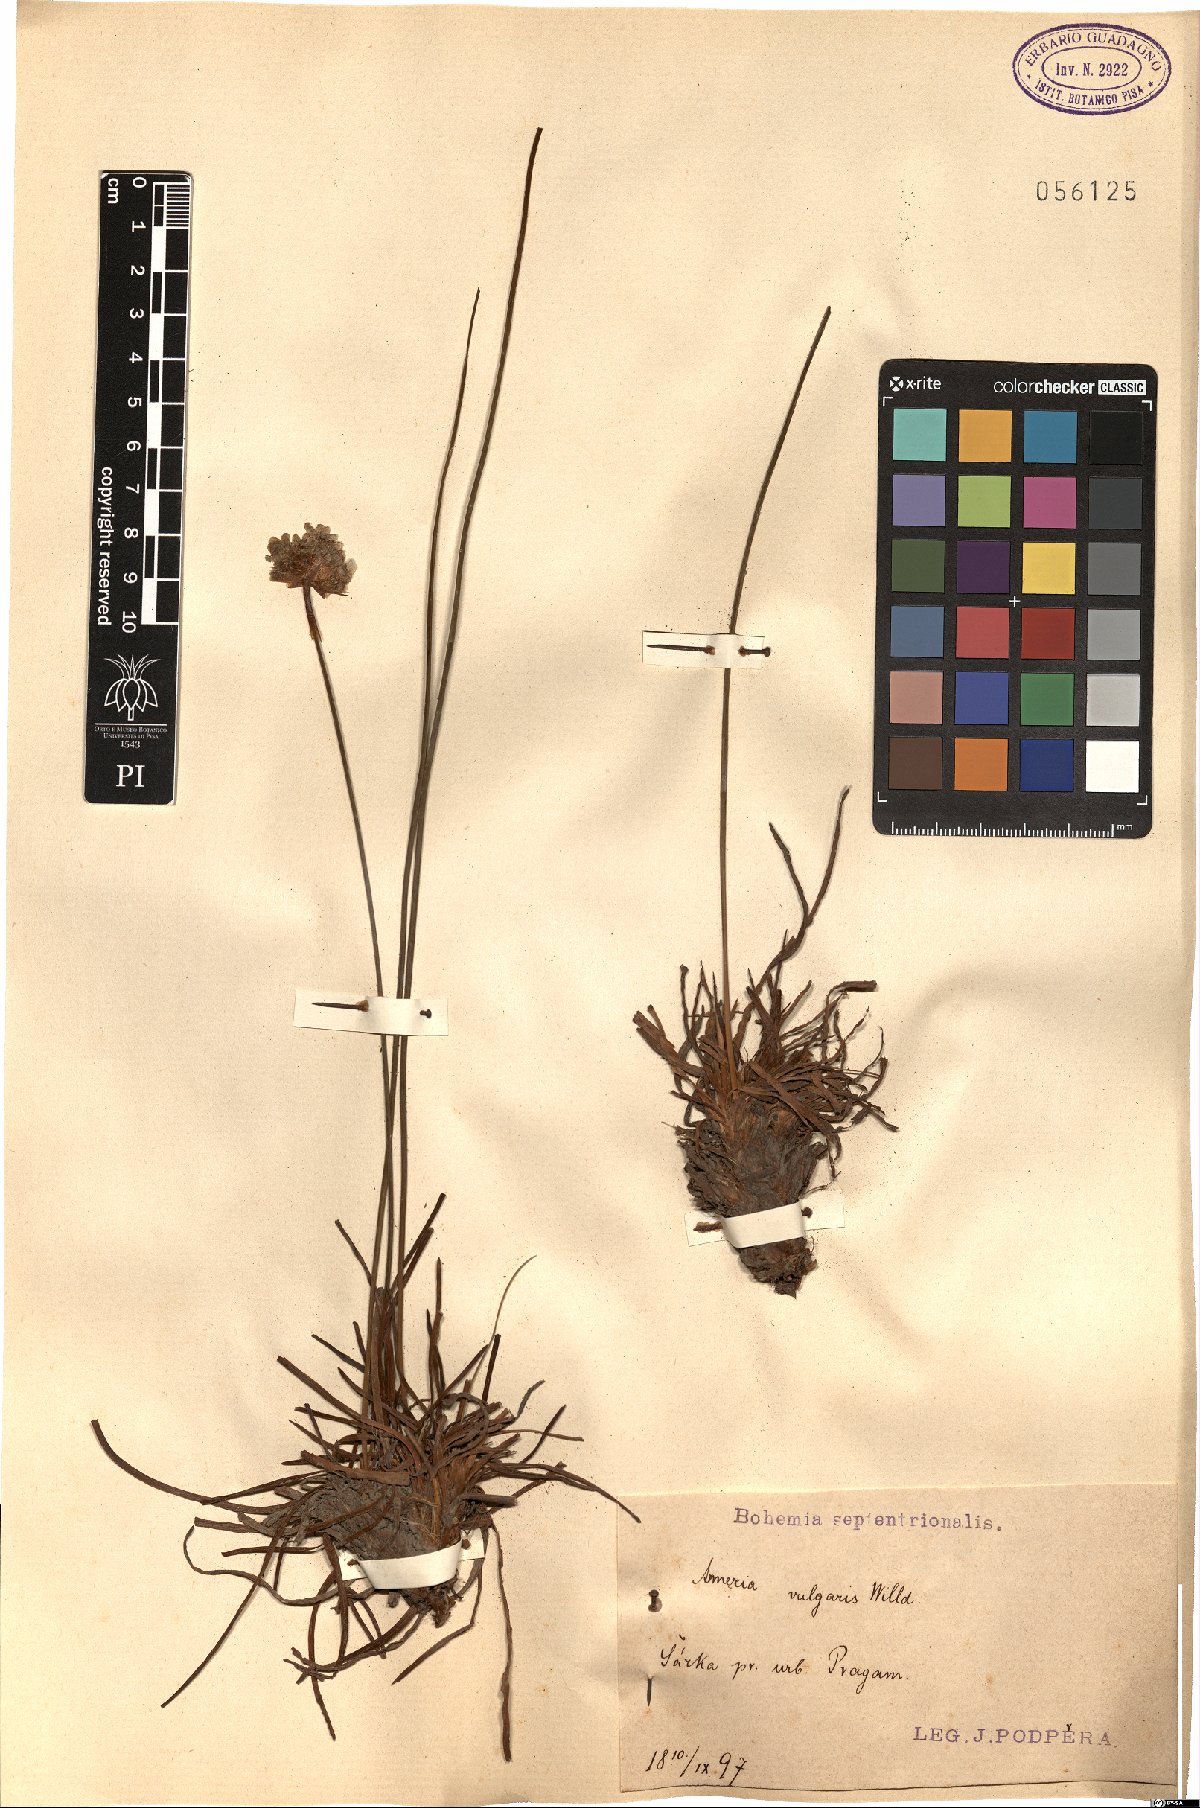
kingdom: Plantae
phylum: Tracheophyta
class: Magnoliopsida
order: Caryophyllales
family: Plumbaginaceae
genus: Armeria
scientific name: Armeria maritima
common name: Thrift
